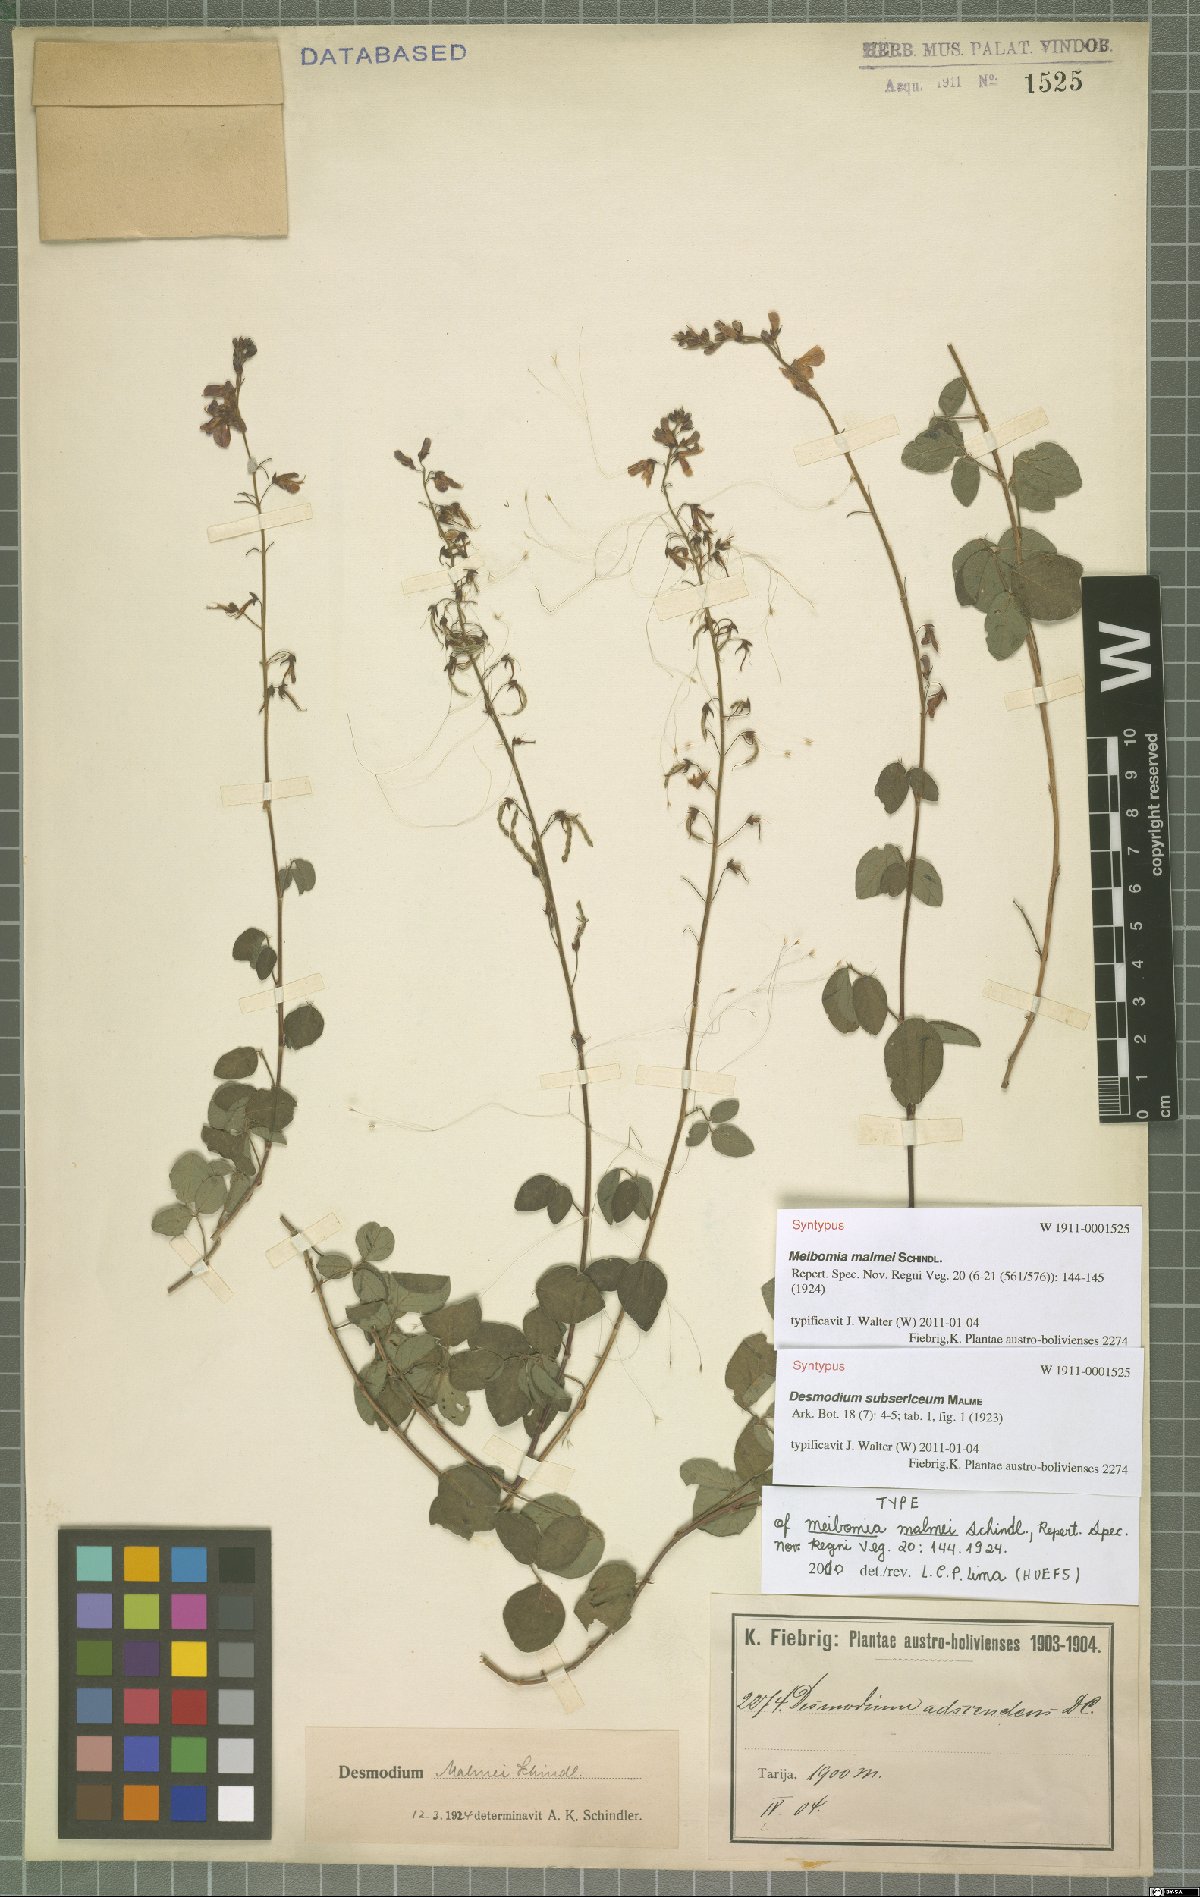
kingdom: Plantae
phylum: Tracheophyta
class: Magnoliopsida
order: Fabales
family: Fabaceae
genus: Desmodium
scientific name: Desmodium subsericeum
